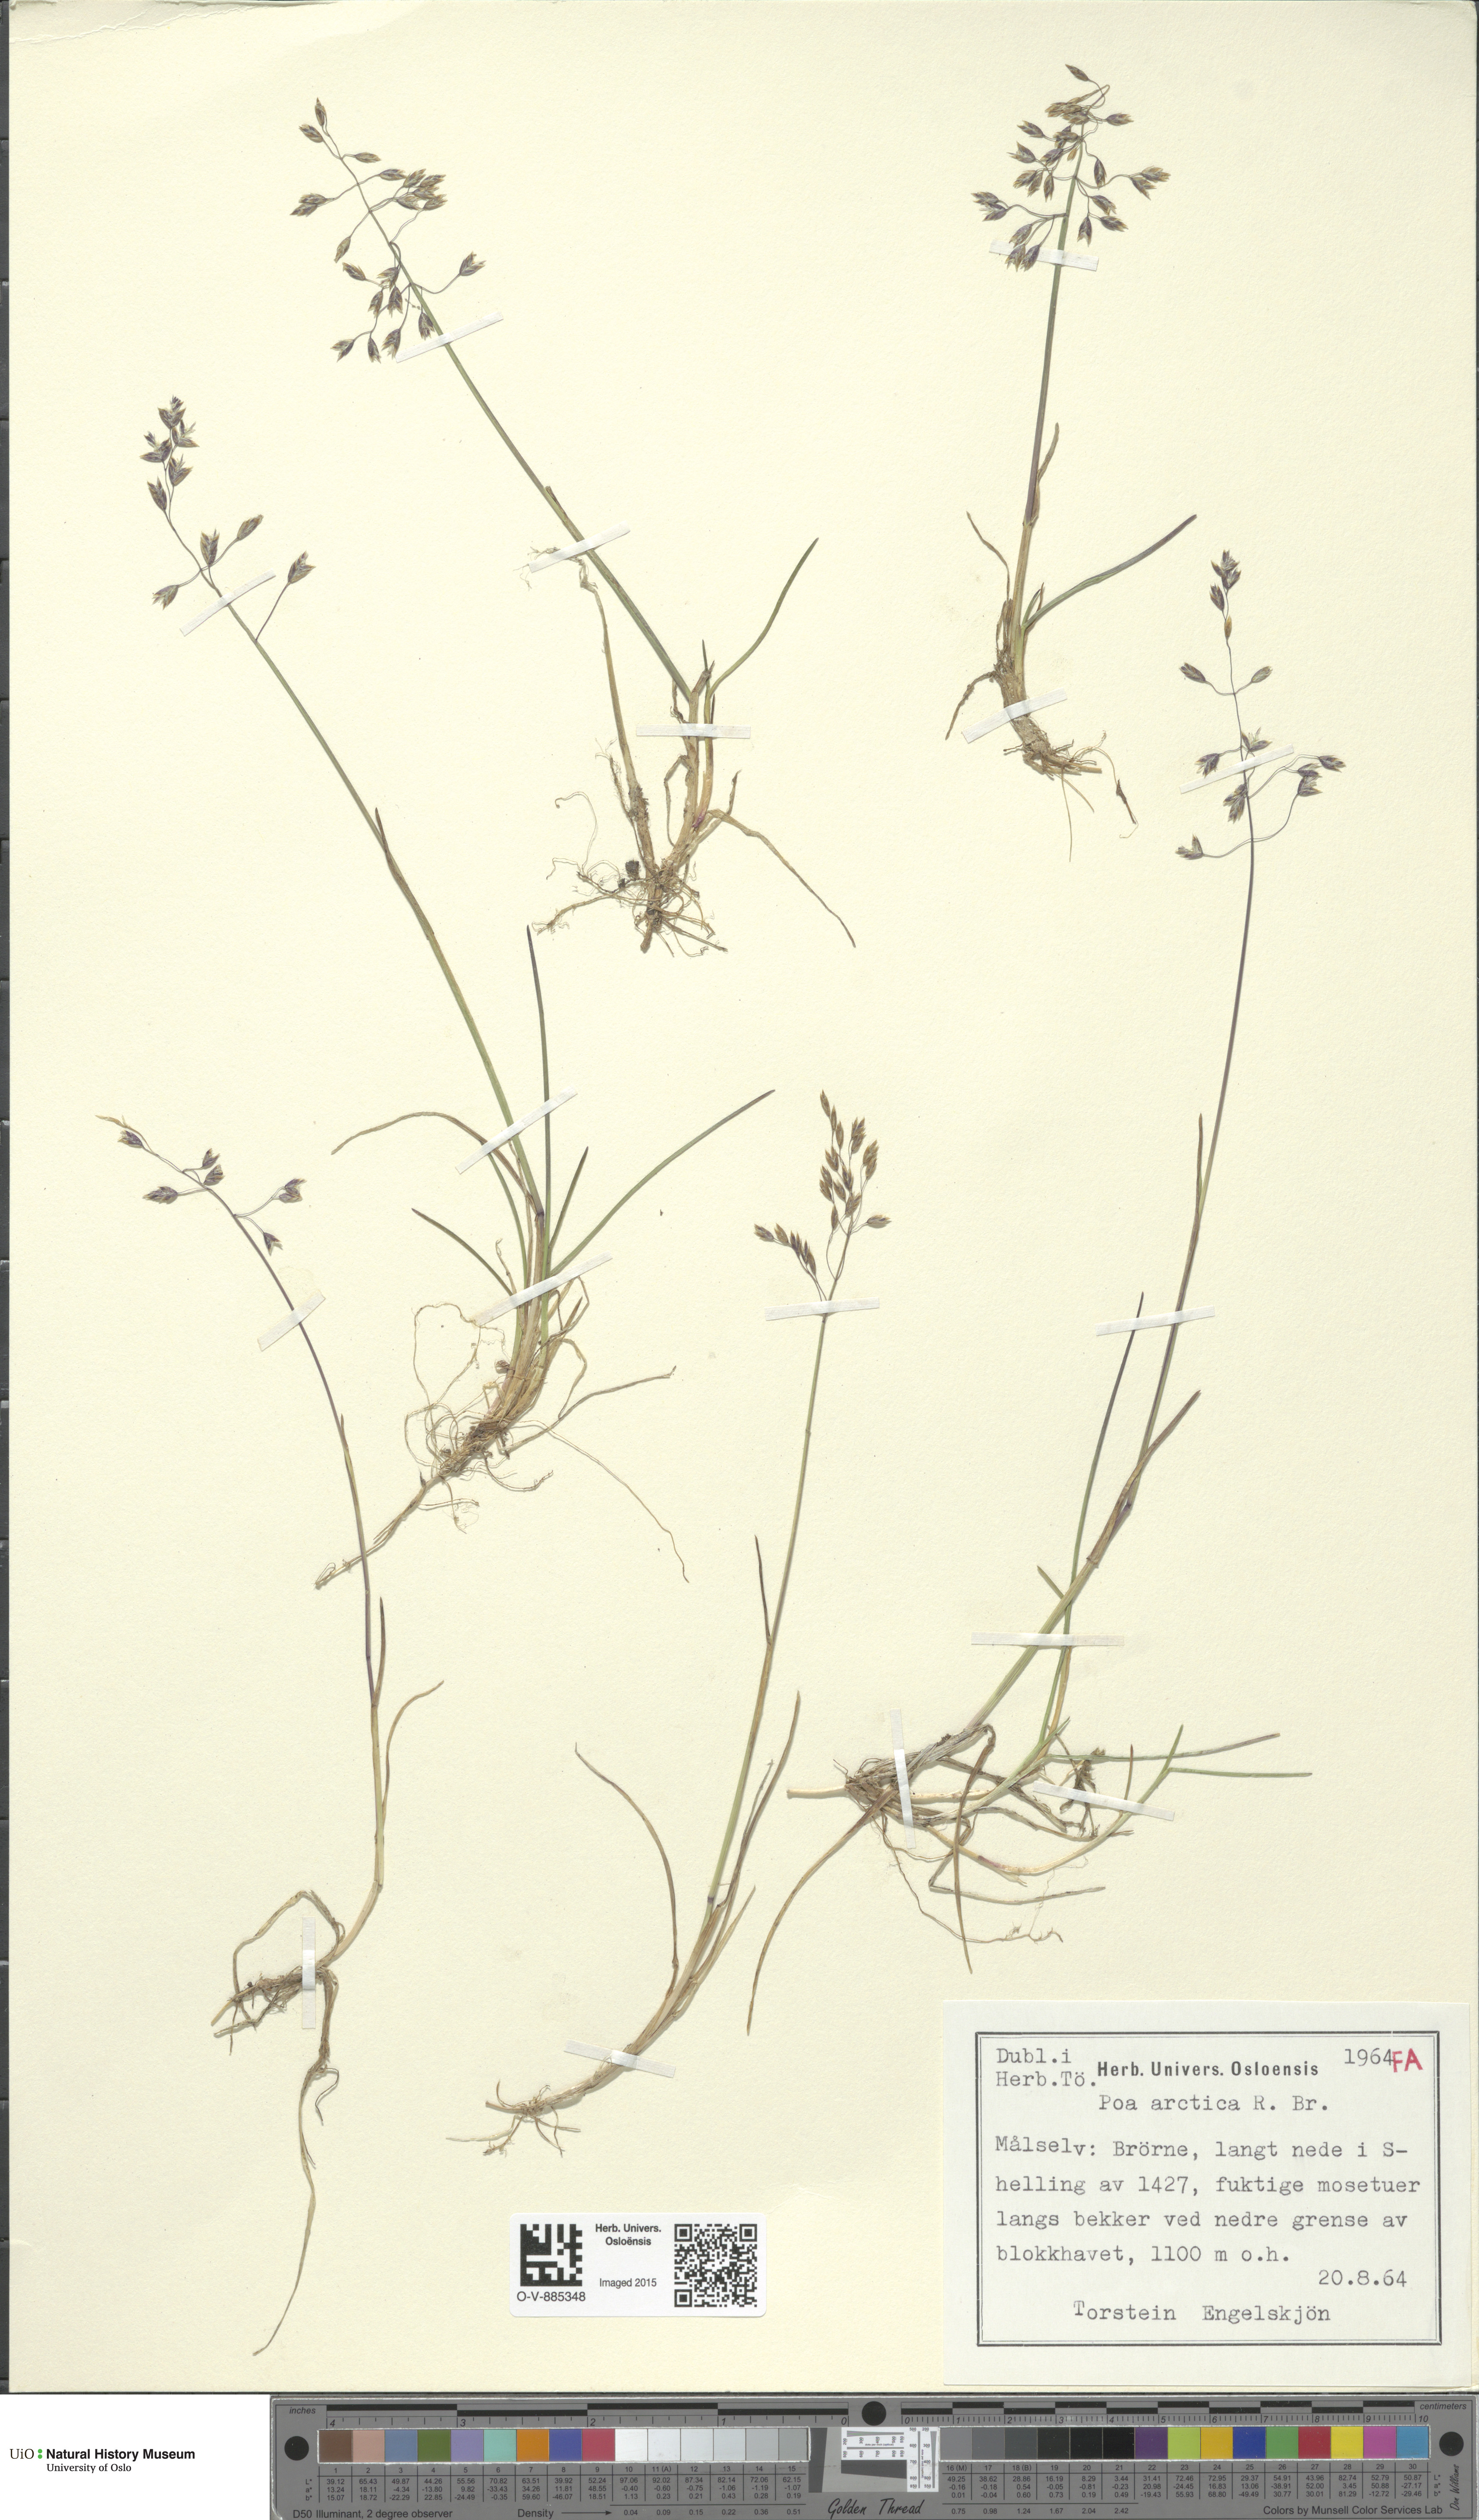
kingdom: Plantae
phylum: Tracheophyta
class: Liliopsida
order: Poales
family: Poaceae
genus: Poa
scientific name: Poa arctica
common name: Arctic bluegrass
